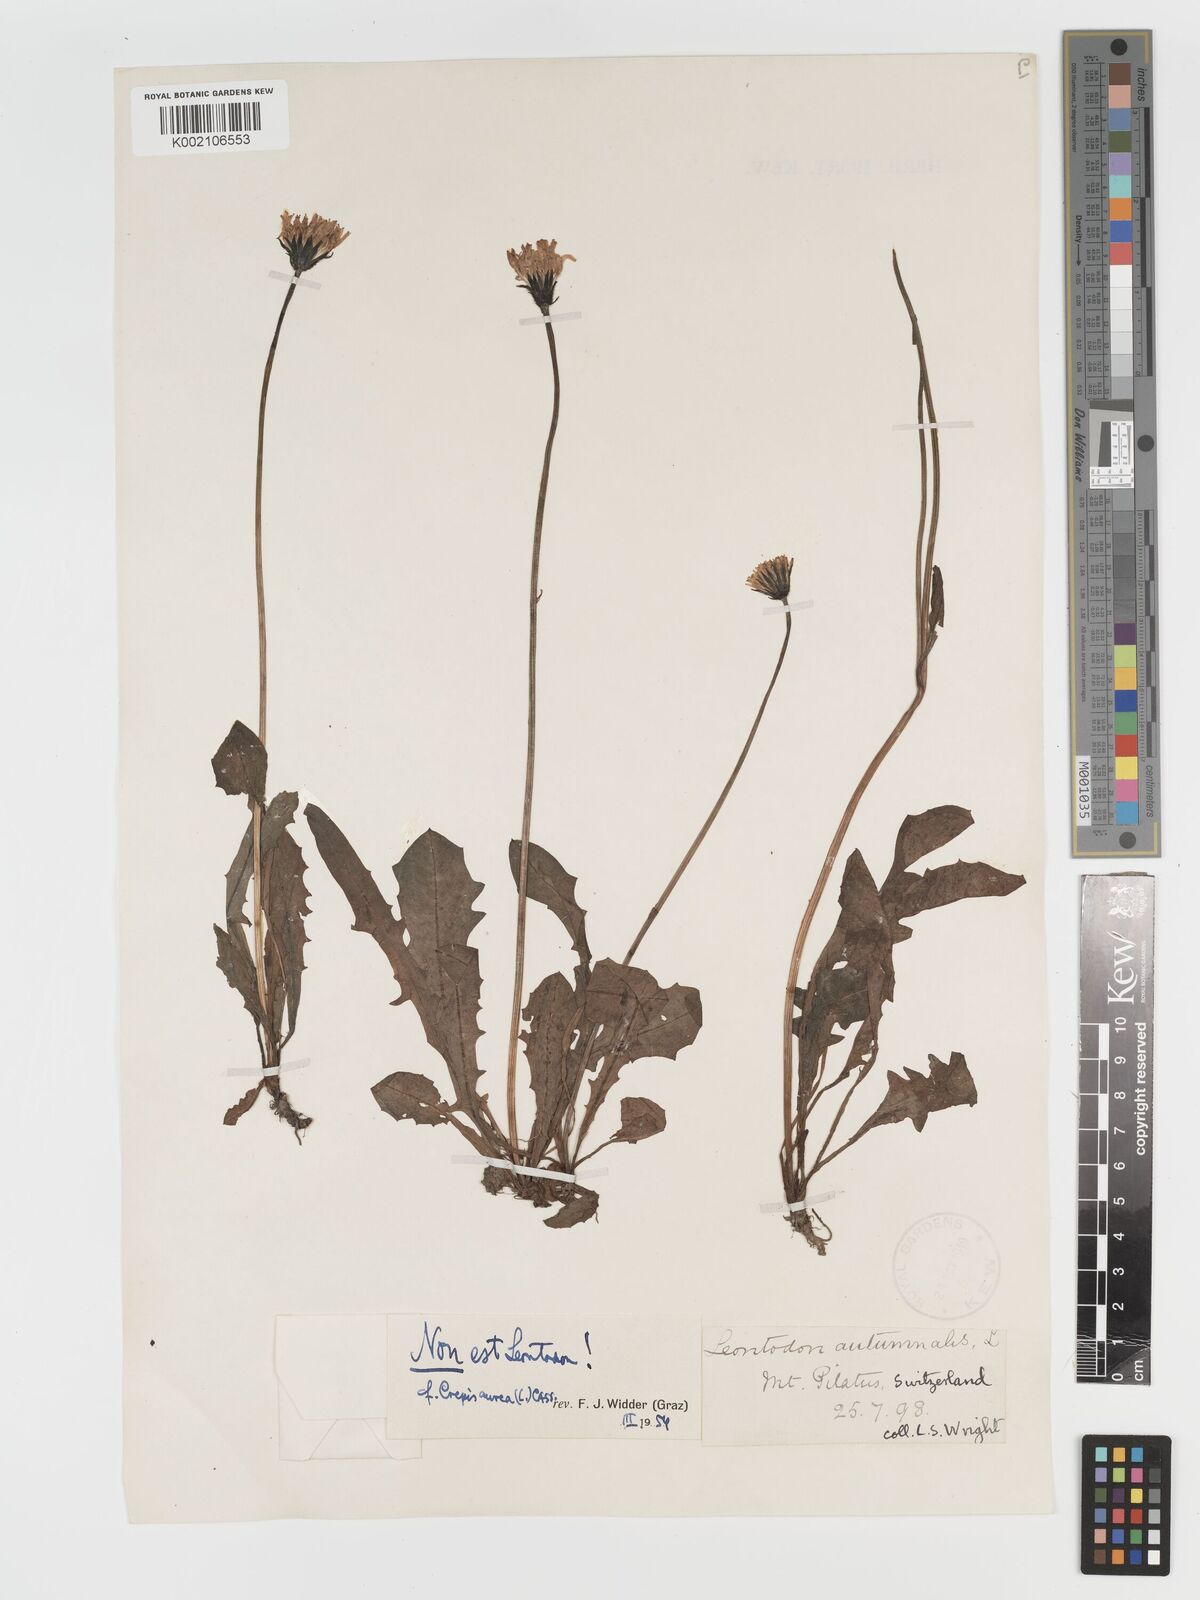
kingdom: Plantae
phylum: Tracheophyta
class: Magnoliopsida
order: Asterales
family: Asteraceae
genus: Crepis
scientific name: Crepis aurea
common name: Golden hawk's-beard
